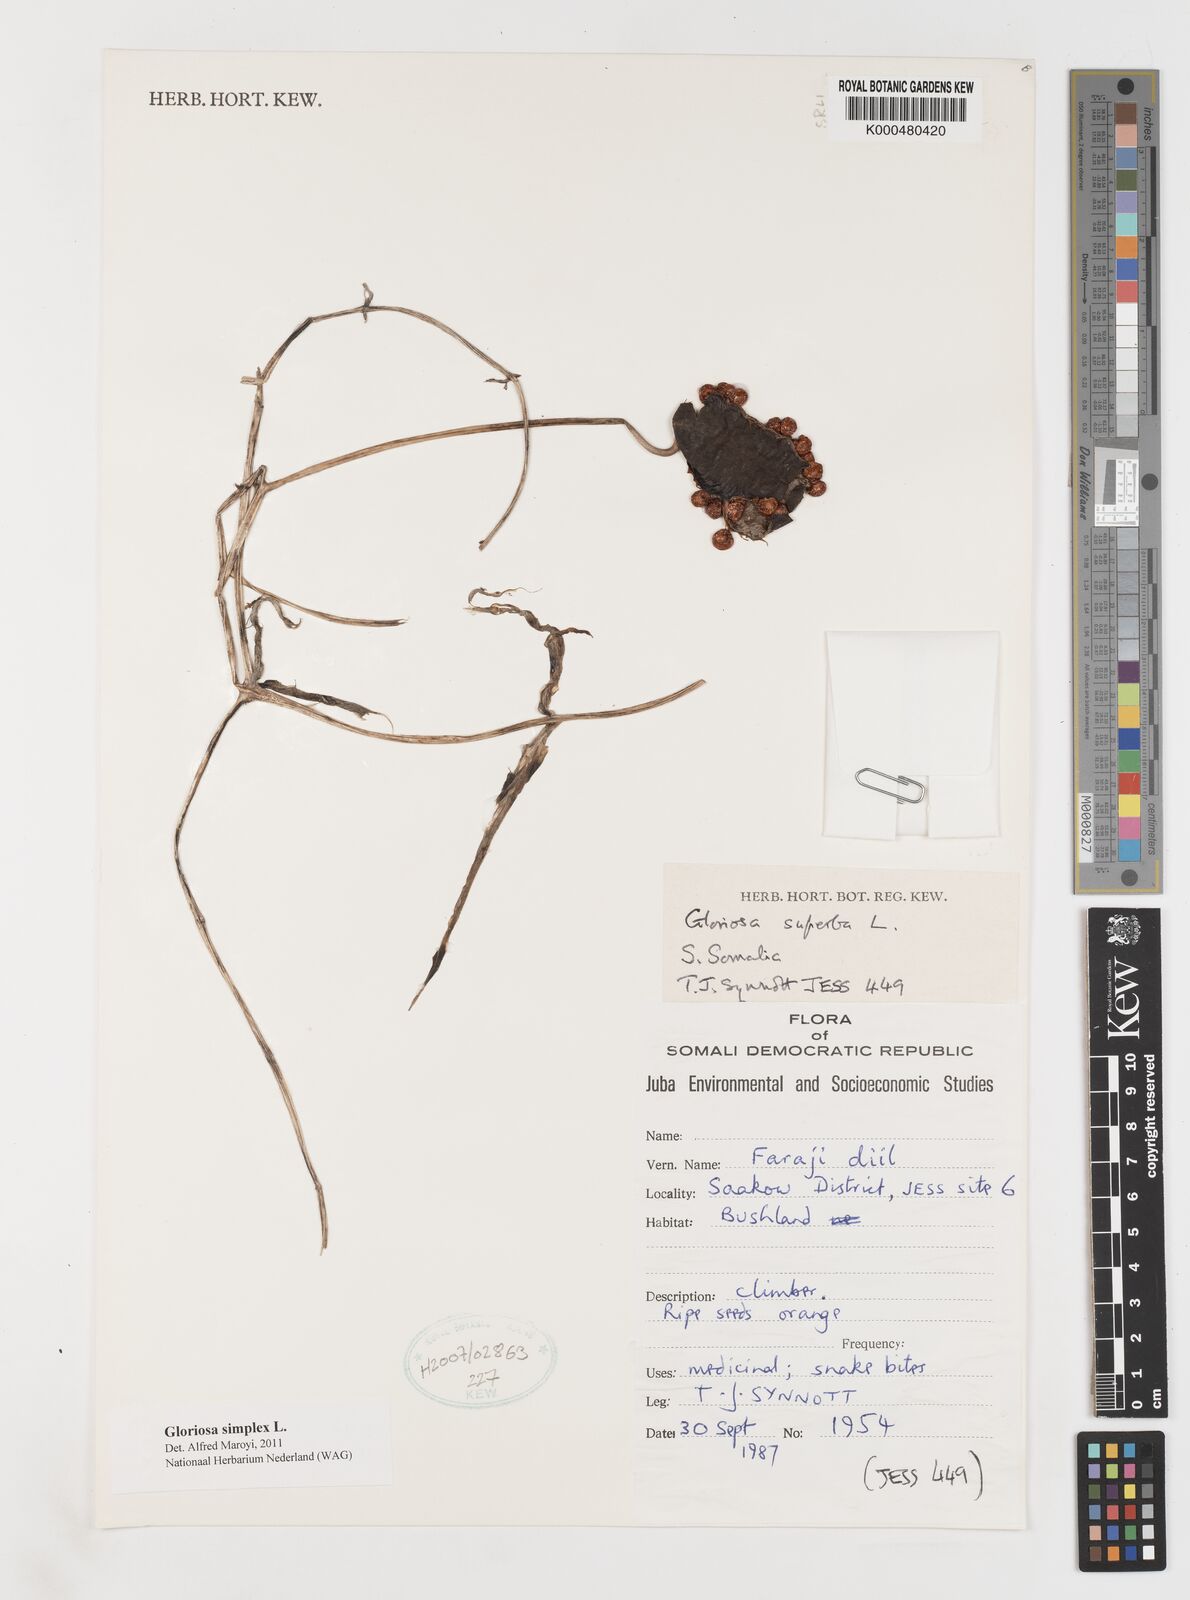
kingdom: Plantae
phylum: Tracheophyta
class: Liliopsida
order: Liliales
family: Colchicaceae
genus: Gloriosa
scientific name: Gloriosa superba
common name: Flame lily
